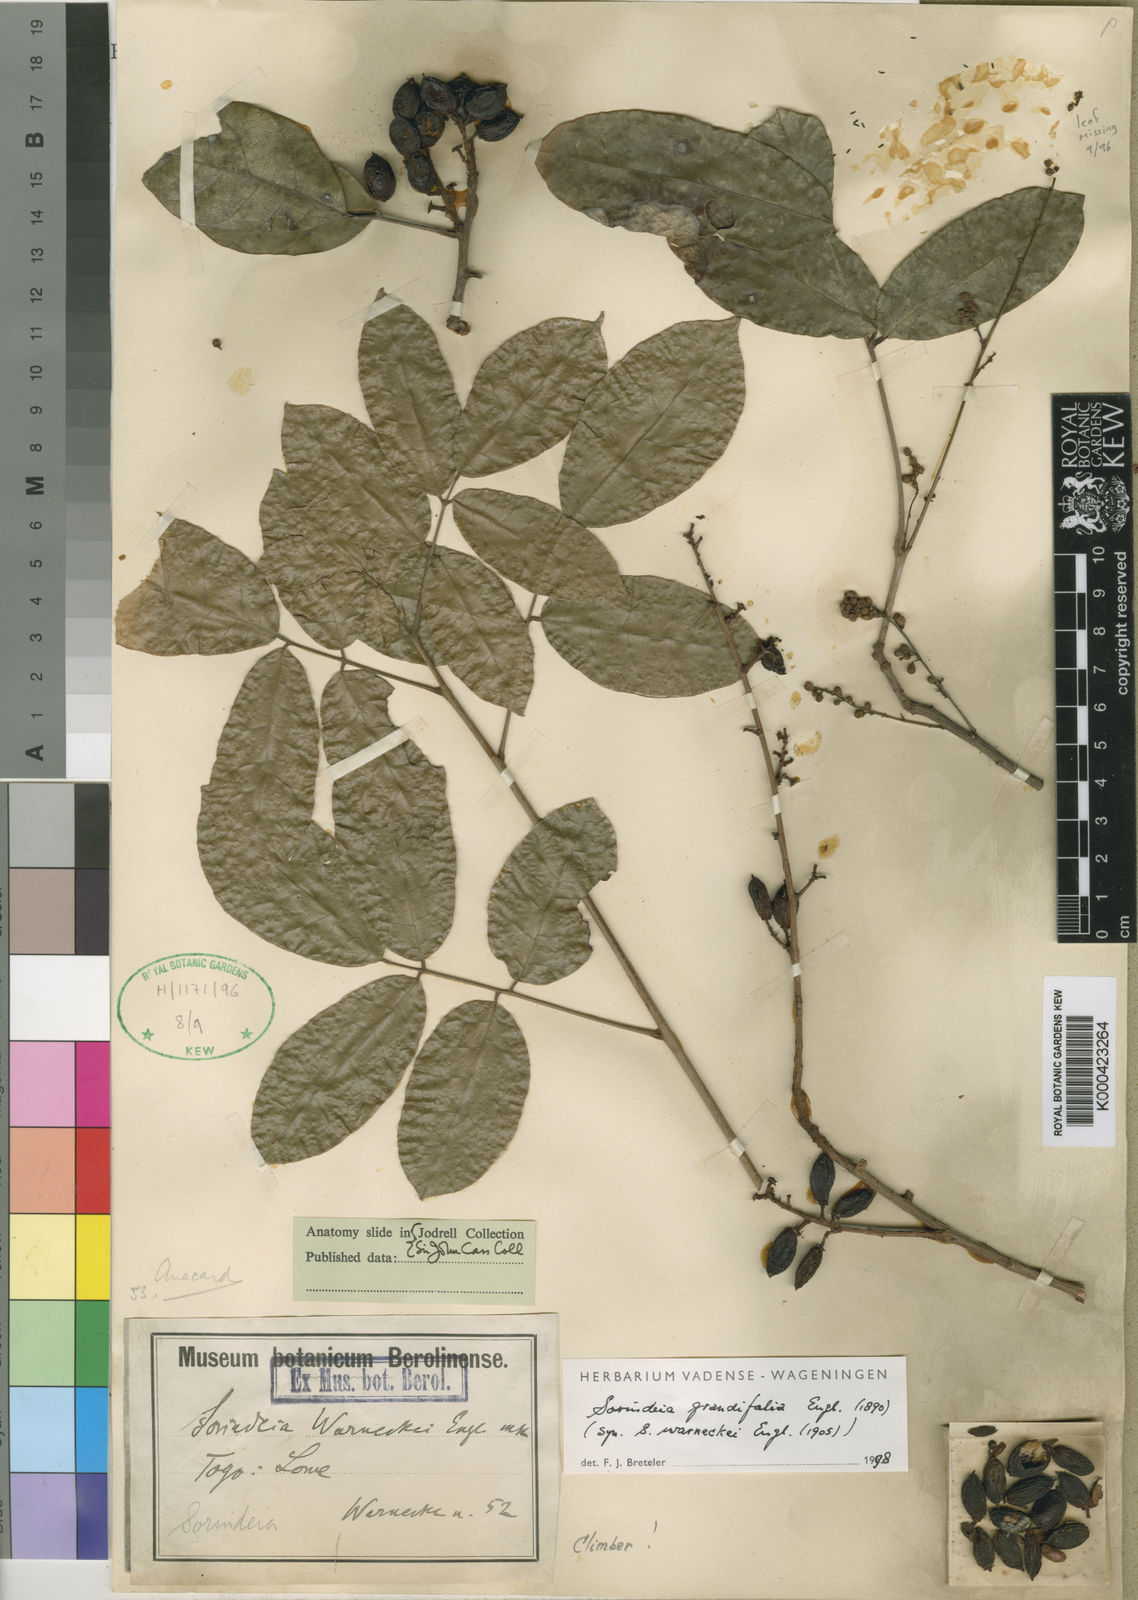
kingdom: Plantae
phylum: Tracheophyta
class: Magnoliopsida
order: Sapindales
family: Anacardiaceae
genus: Sorindeia
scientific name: Sorindeia grandifolia
